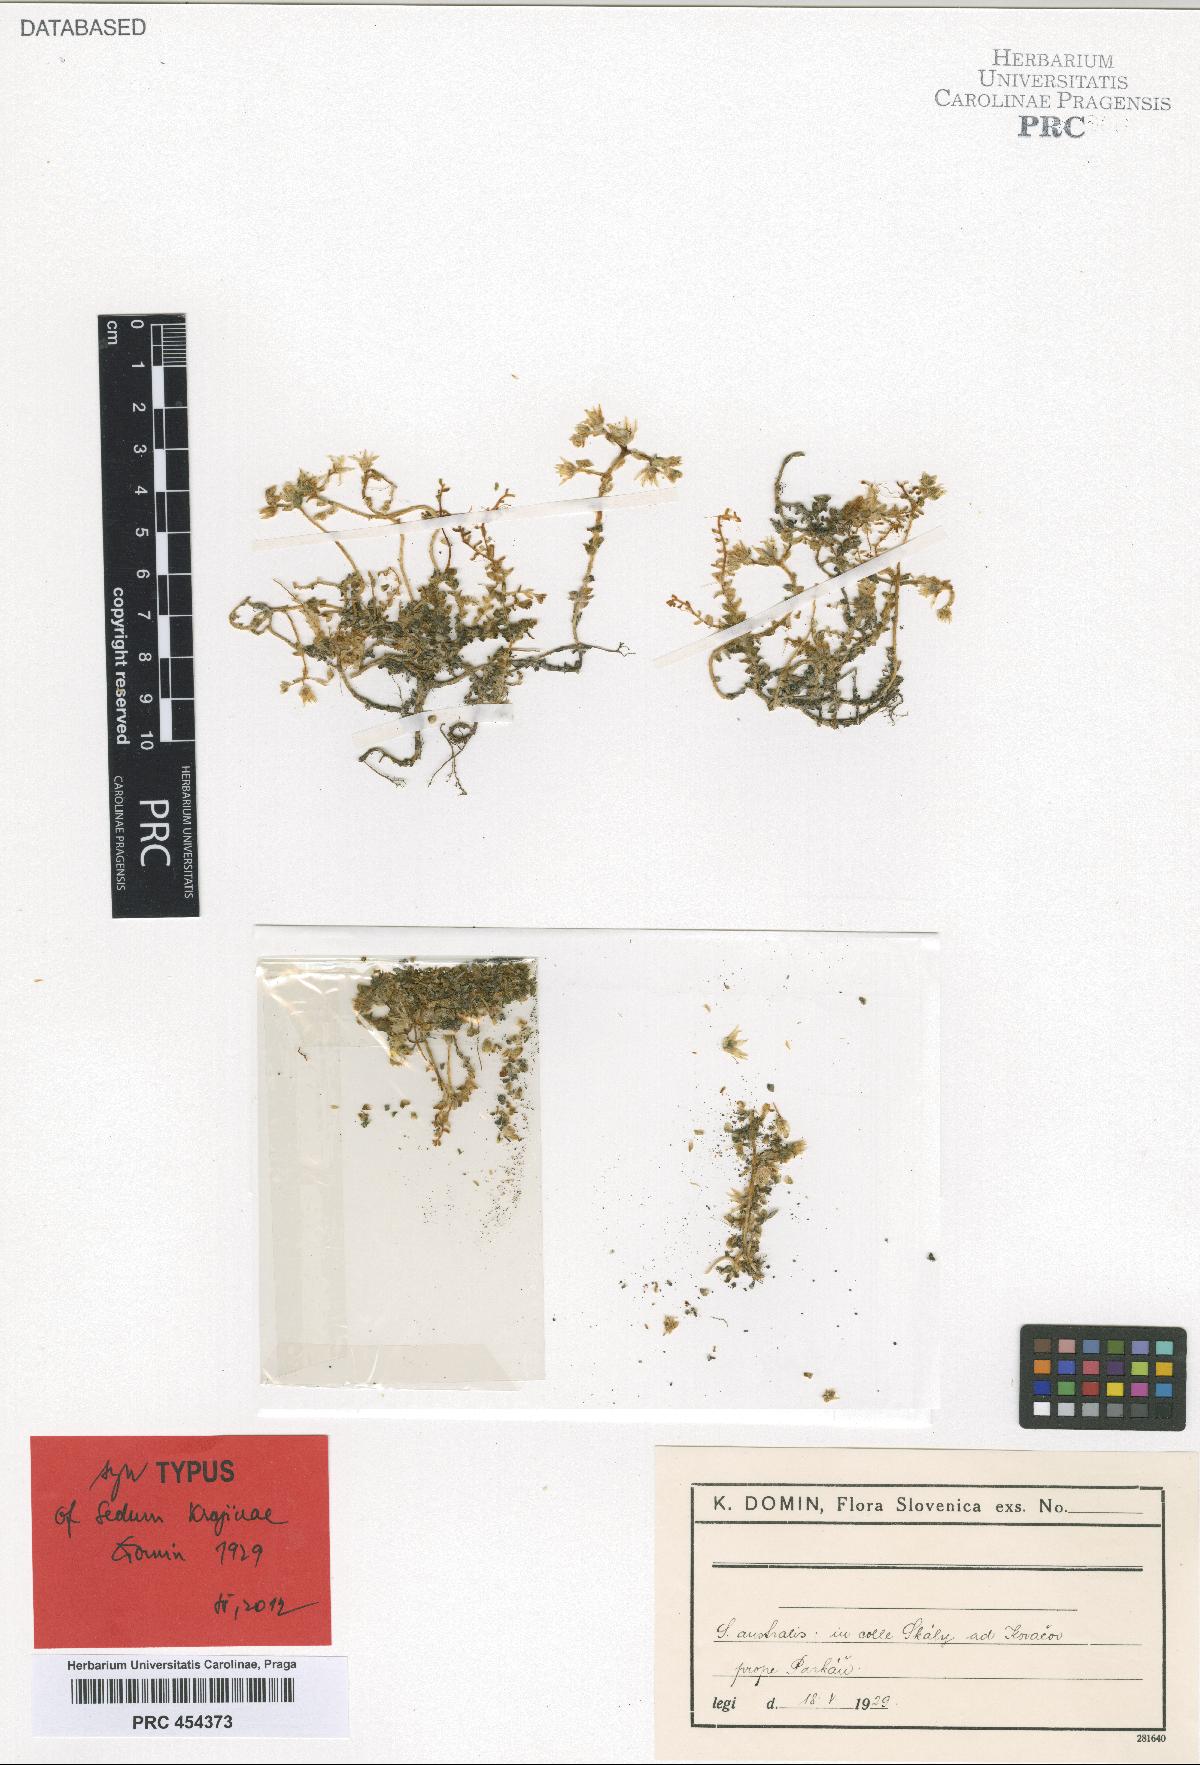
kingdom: Plantae
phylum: Tracheophyta
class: Magnoliopsida
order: Saxifragales
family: Crassulaceae
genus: Sedum
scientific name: Sedum acre
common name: Biting stonecrop
